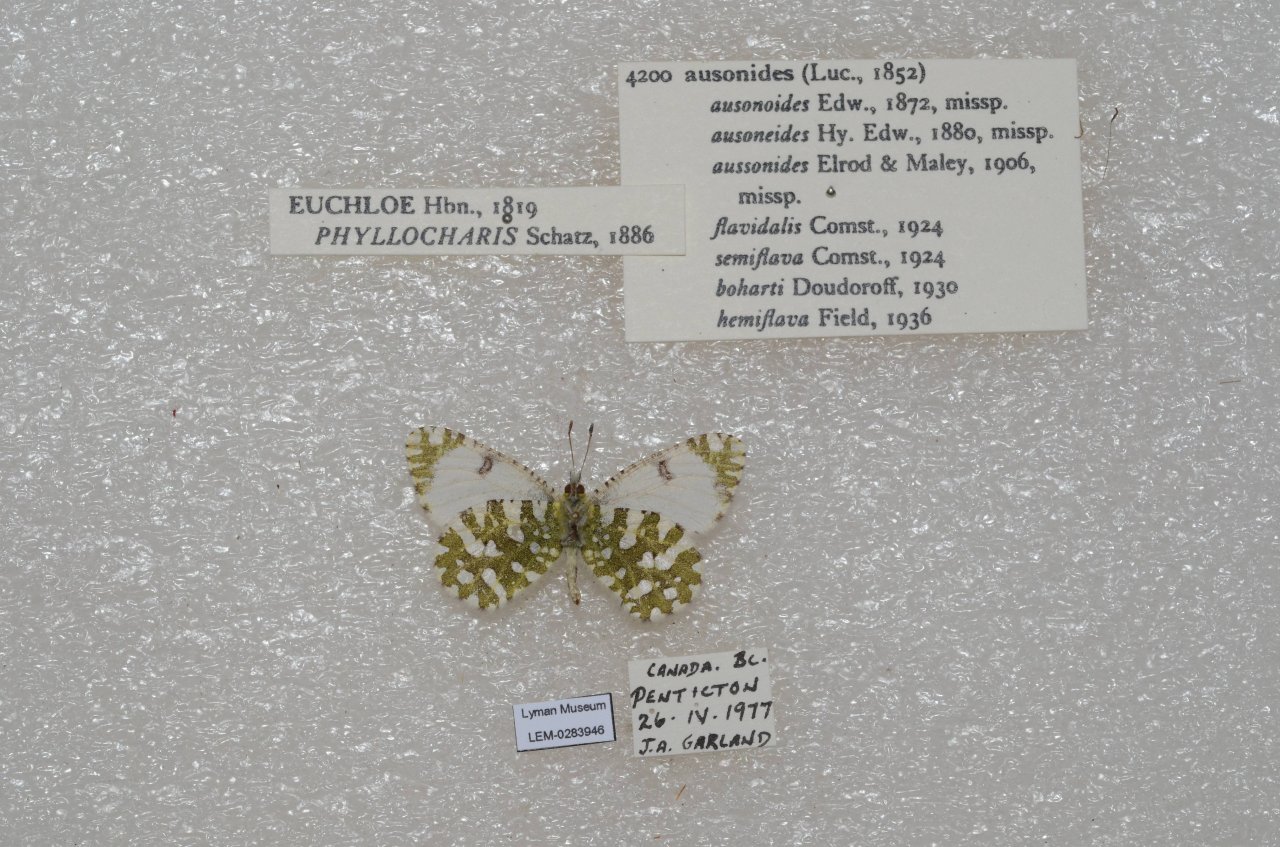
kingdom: Animalia
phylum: Arthropoda
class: Insecta
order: Lepidoptera
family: Pieridae
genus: Euchloe
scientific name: Euchloe ausonides
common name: Large Marble
